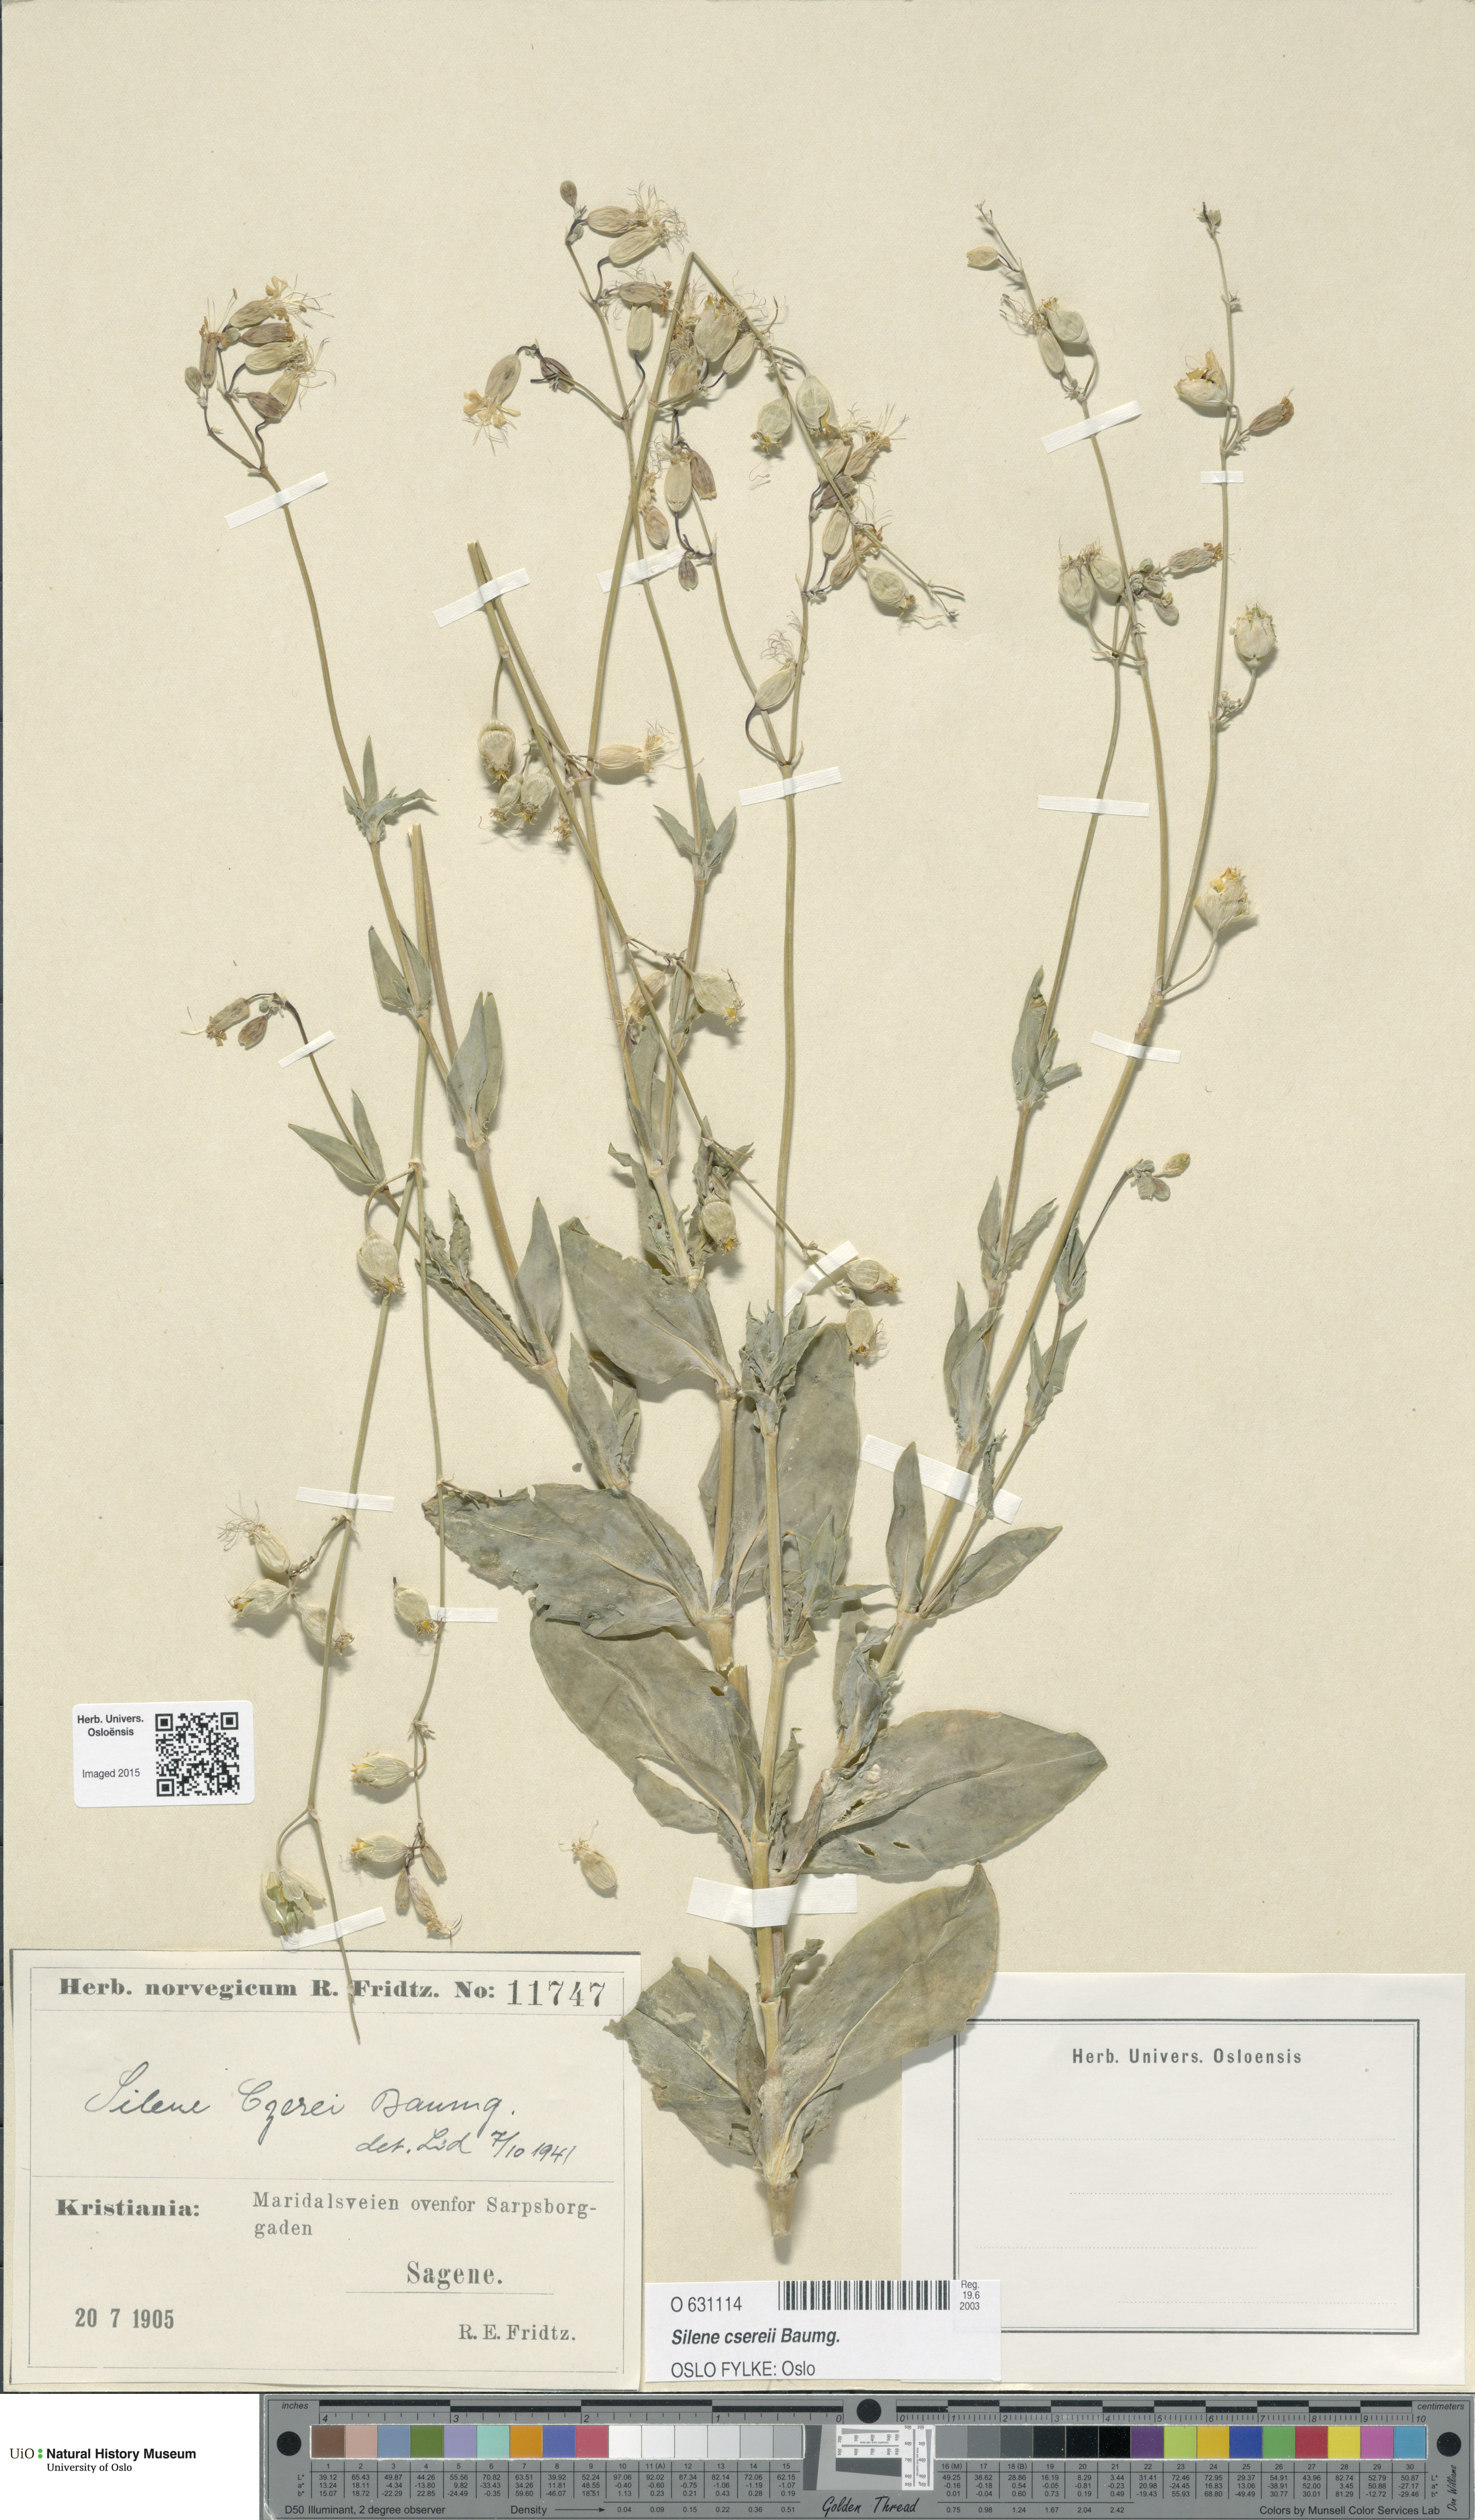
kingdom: Plantae
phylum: Tracheophyta
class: Magnoliopsida
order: Caryophyllales
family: Caryophyllaceae
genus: Silene
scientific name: Silene csereii
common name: Balkan catchfly
